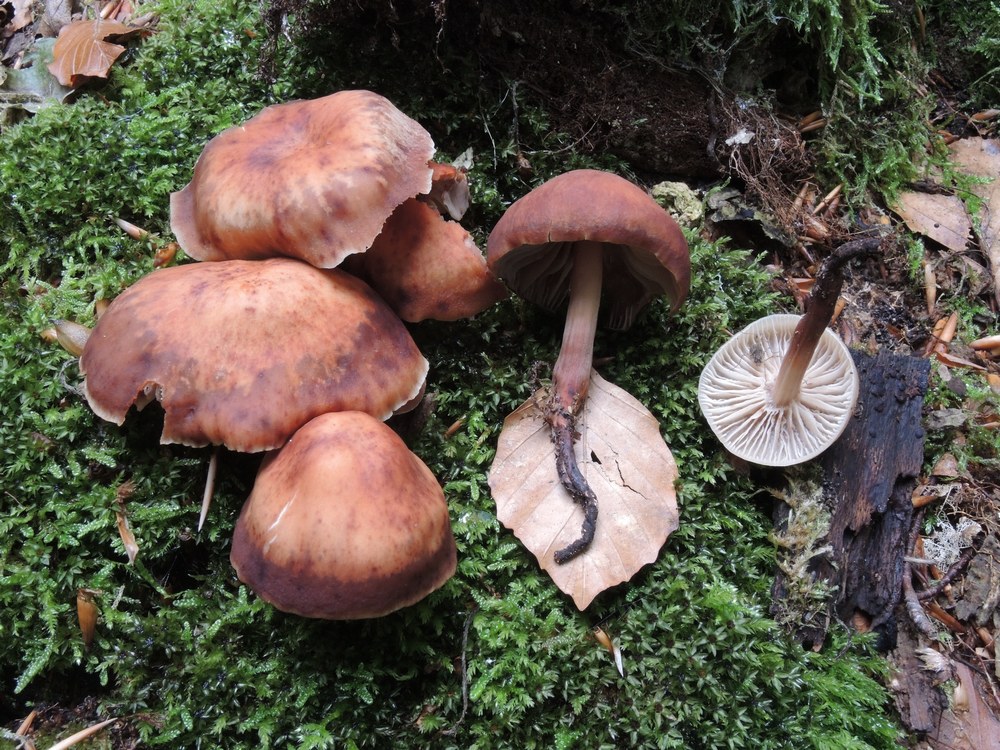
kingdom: Fungi
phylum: Basidiomycota
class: Agaricomycetes
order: Agaricales
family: Omphalotaceae
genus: Gymnopus
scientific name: Gymnopus fusipes
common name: tenstokket fladhat
